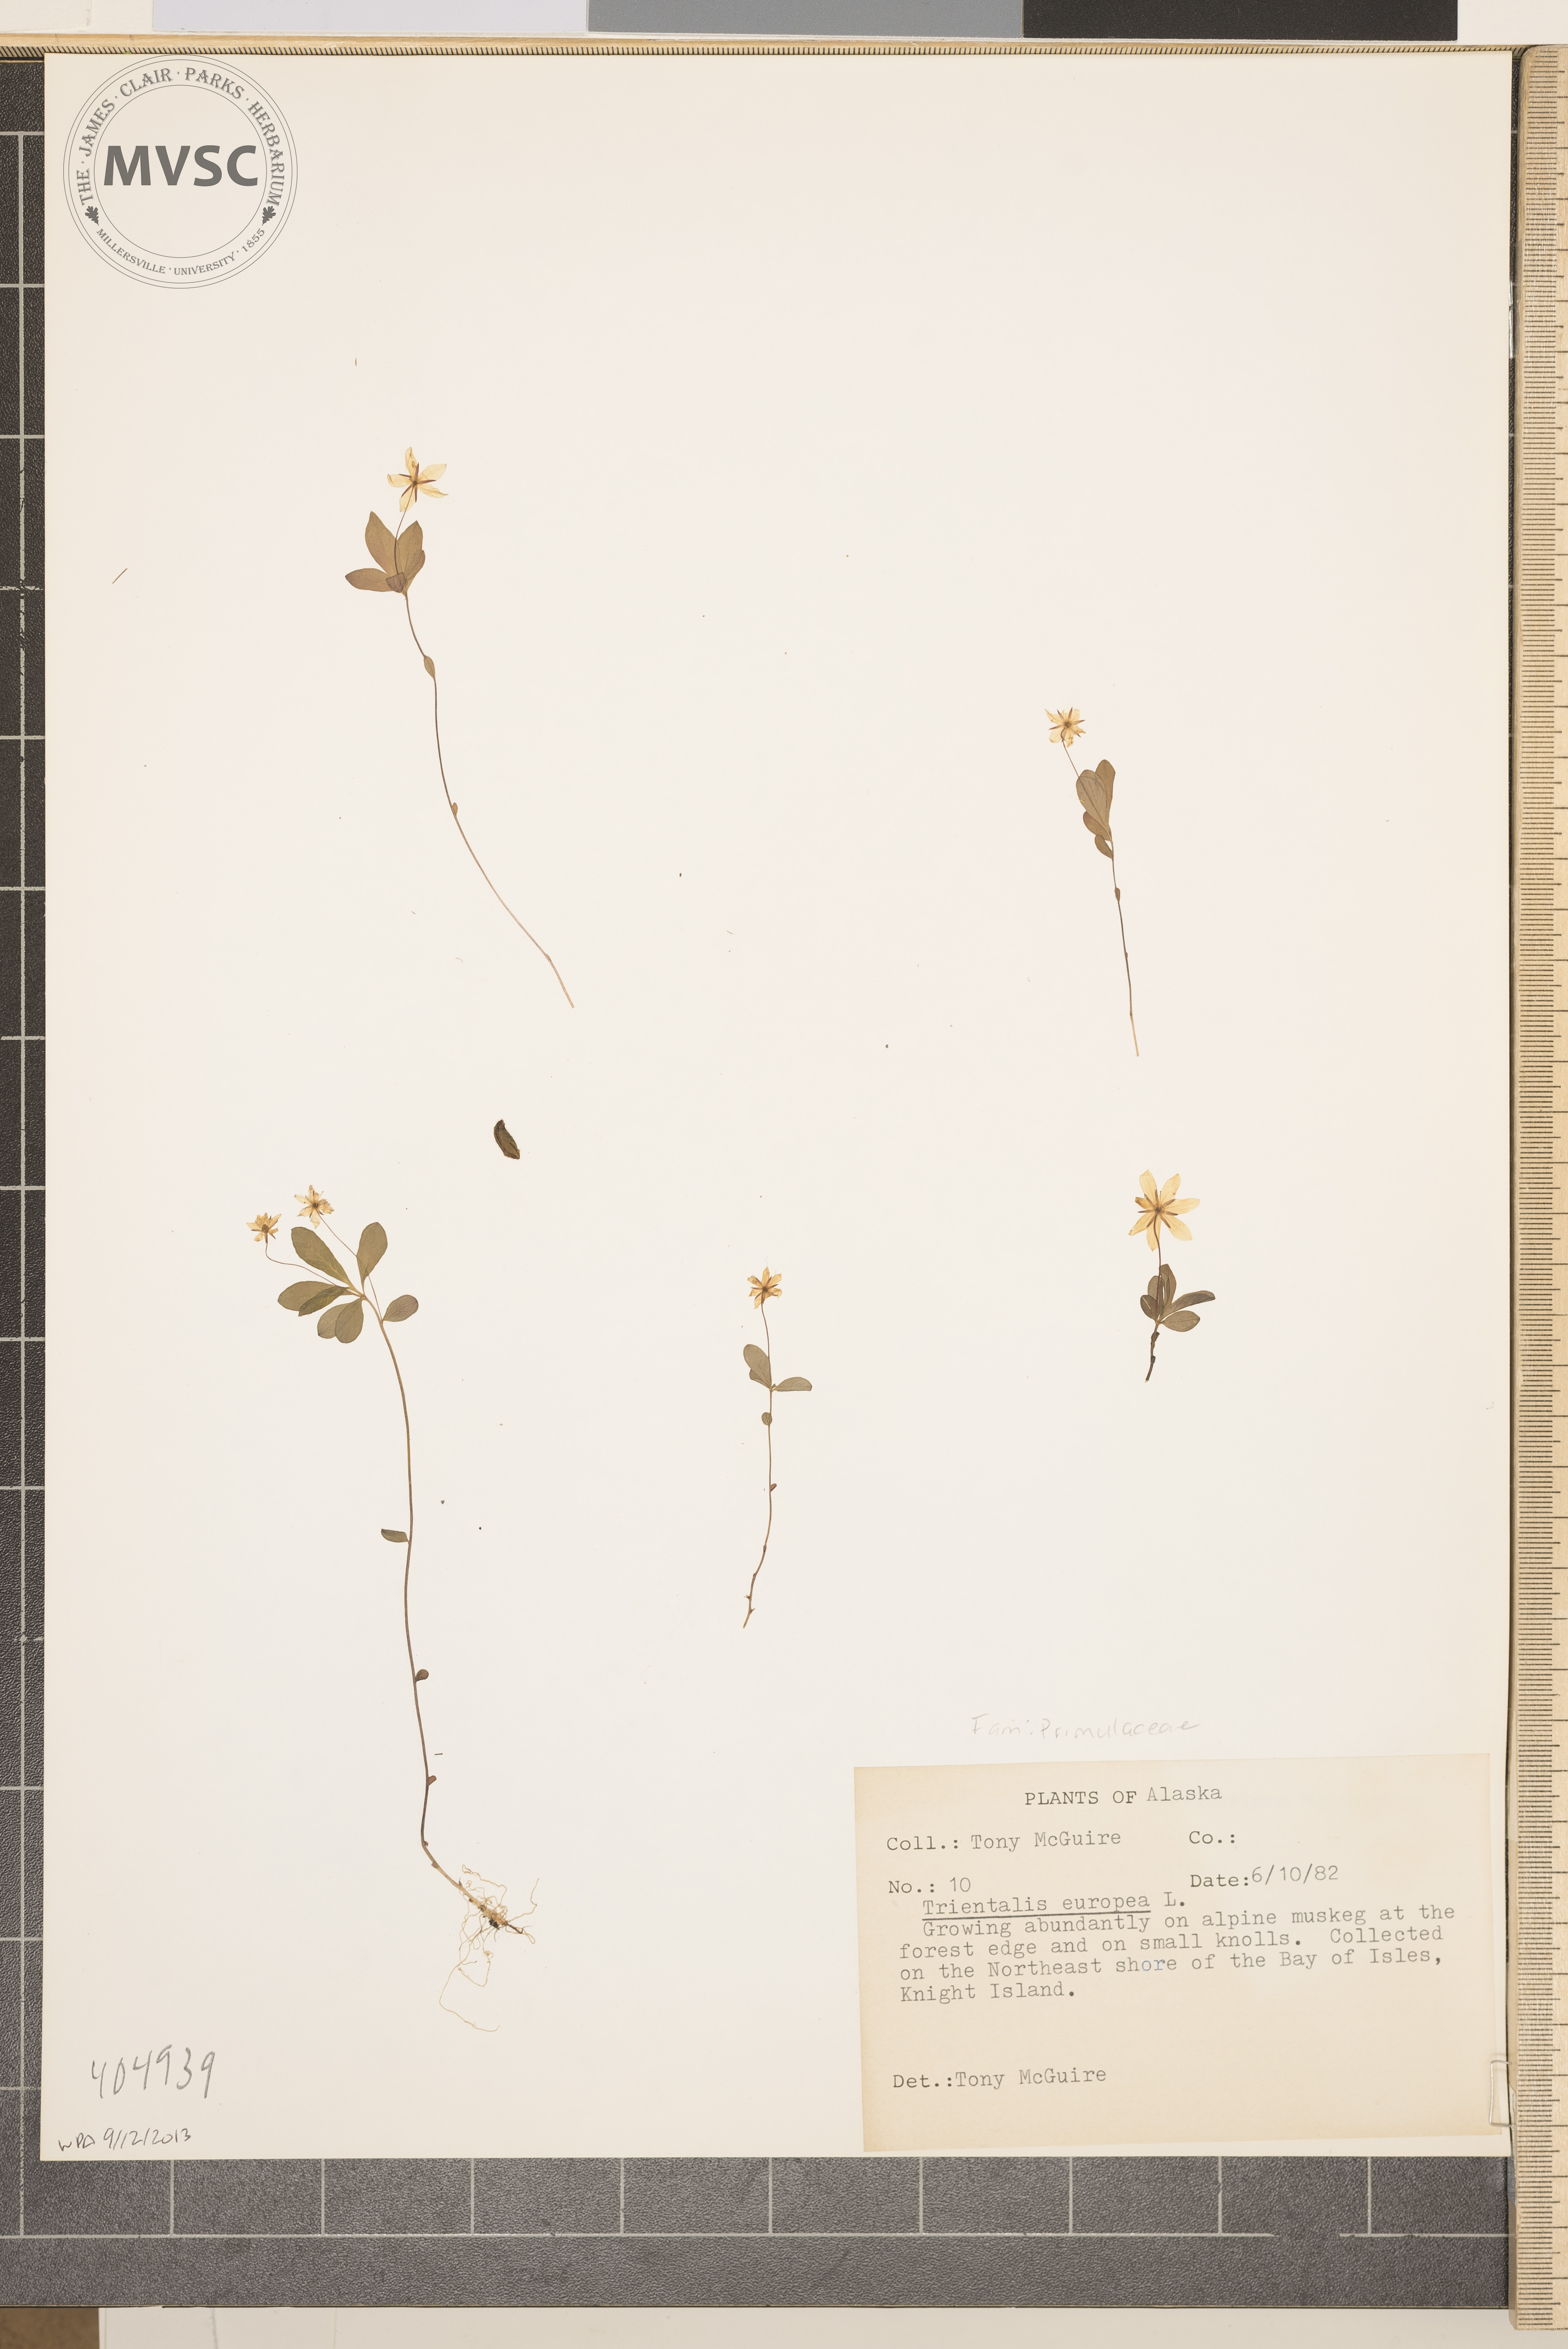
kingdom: Plantae
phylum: Tracheophyta
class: Magnoliopsida
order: Ericales
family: Primulaceae
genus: Lysimachia
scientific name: Lysimachia
